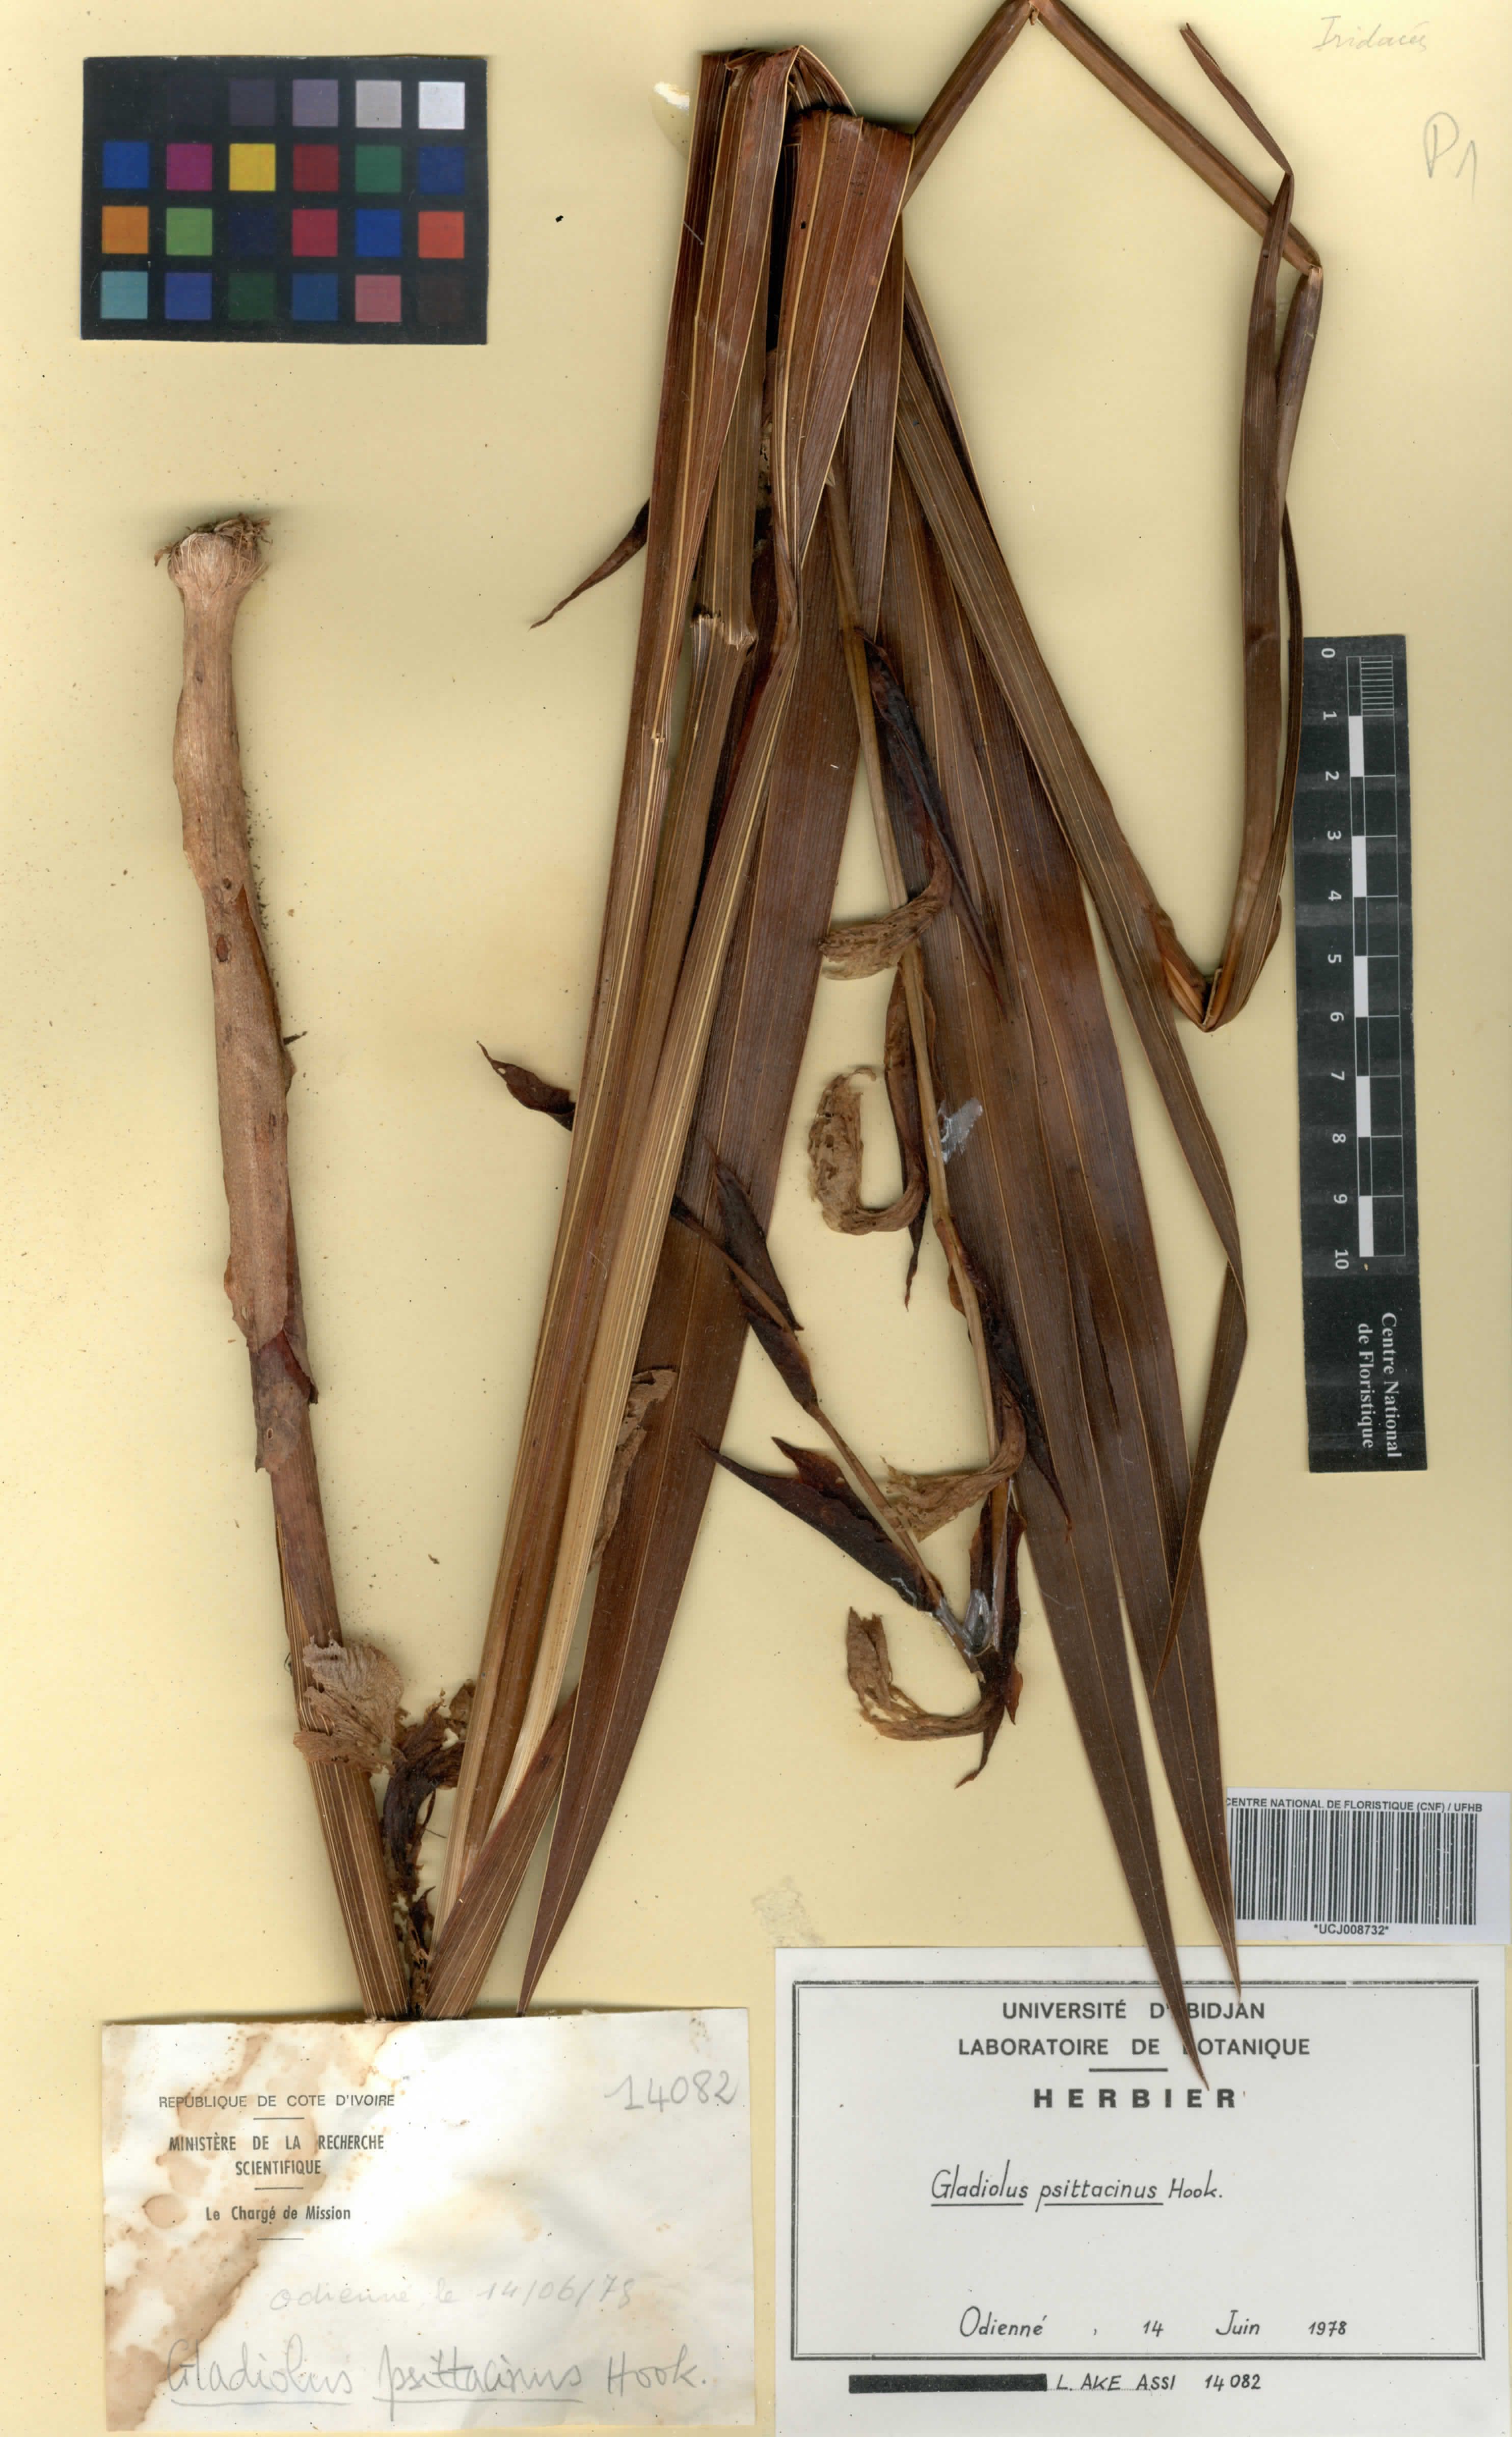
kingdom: Plantae
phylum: Tracheophyta
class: Liliopsida
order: Asparagales
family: Iridaceae
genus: Gladiolus
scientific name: Gladiolus dalenii
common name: Cornflag
